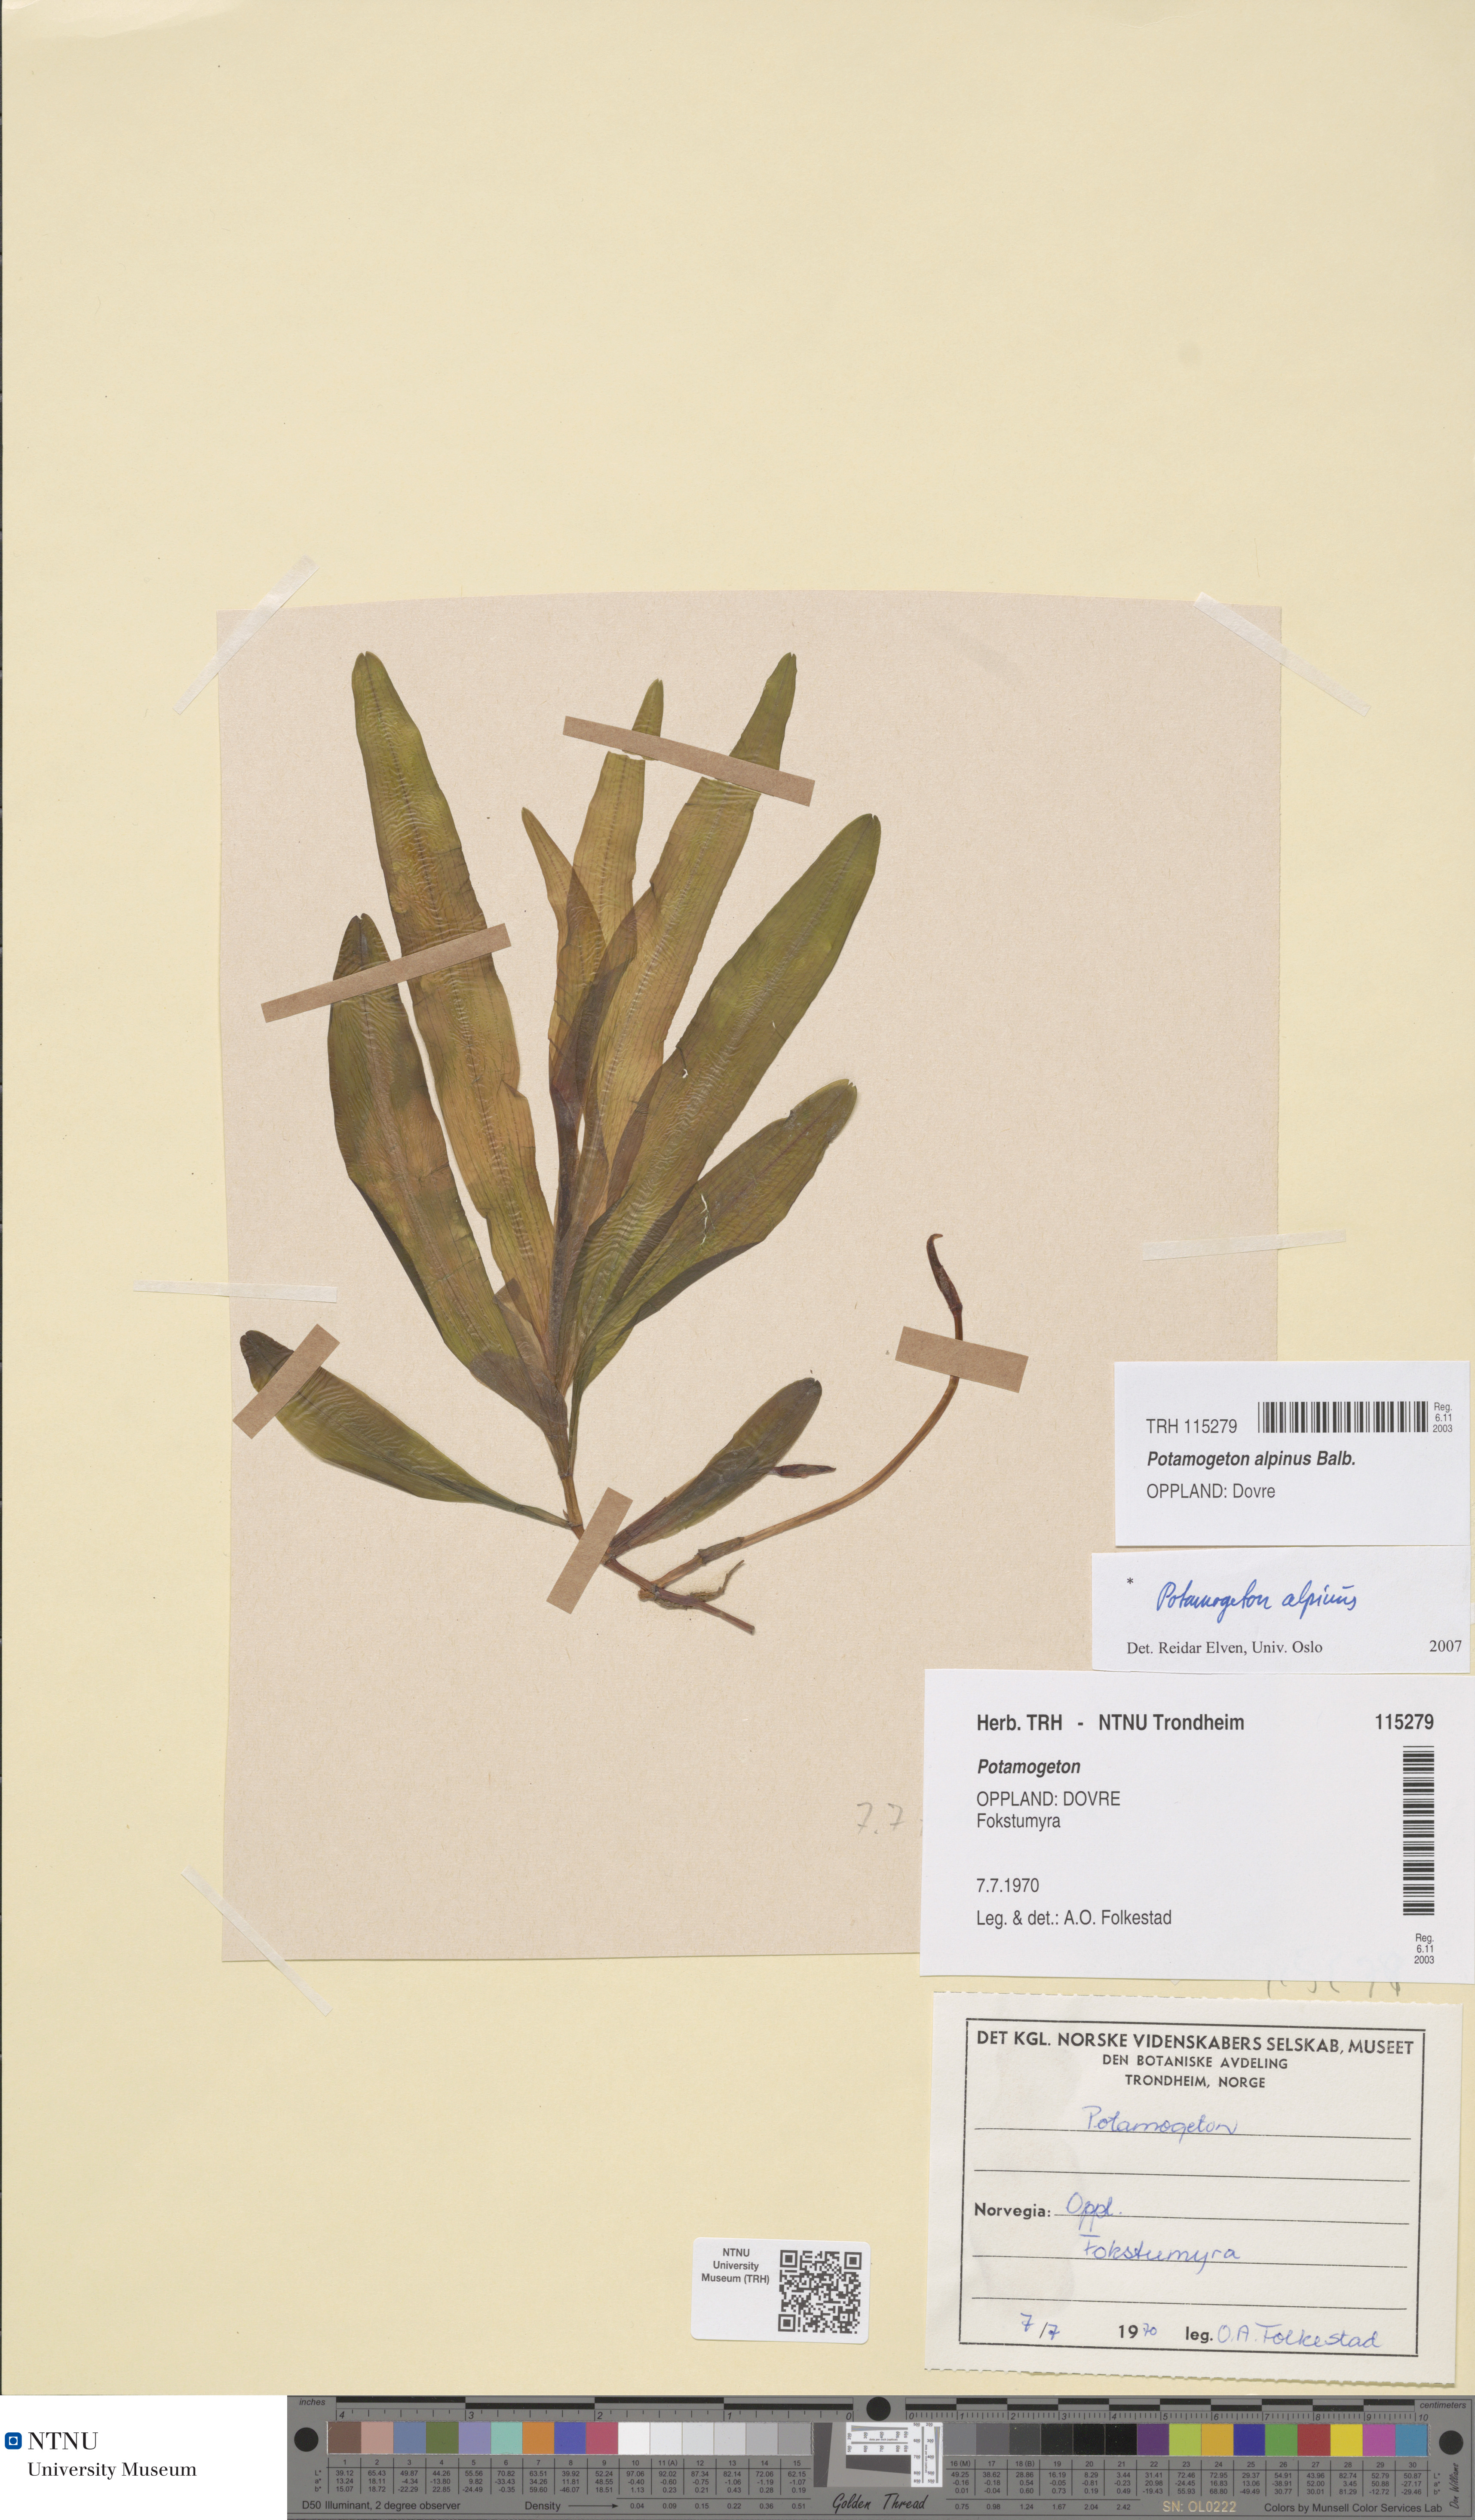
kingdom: Plantae
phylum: Tracheophyta
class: Liliopsida
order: Alismatales
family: Potamogetonaceae
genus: Potamogeton
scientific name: Potamogeton alpinus
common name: Red pondweed
